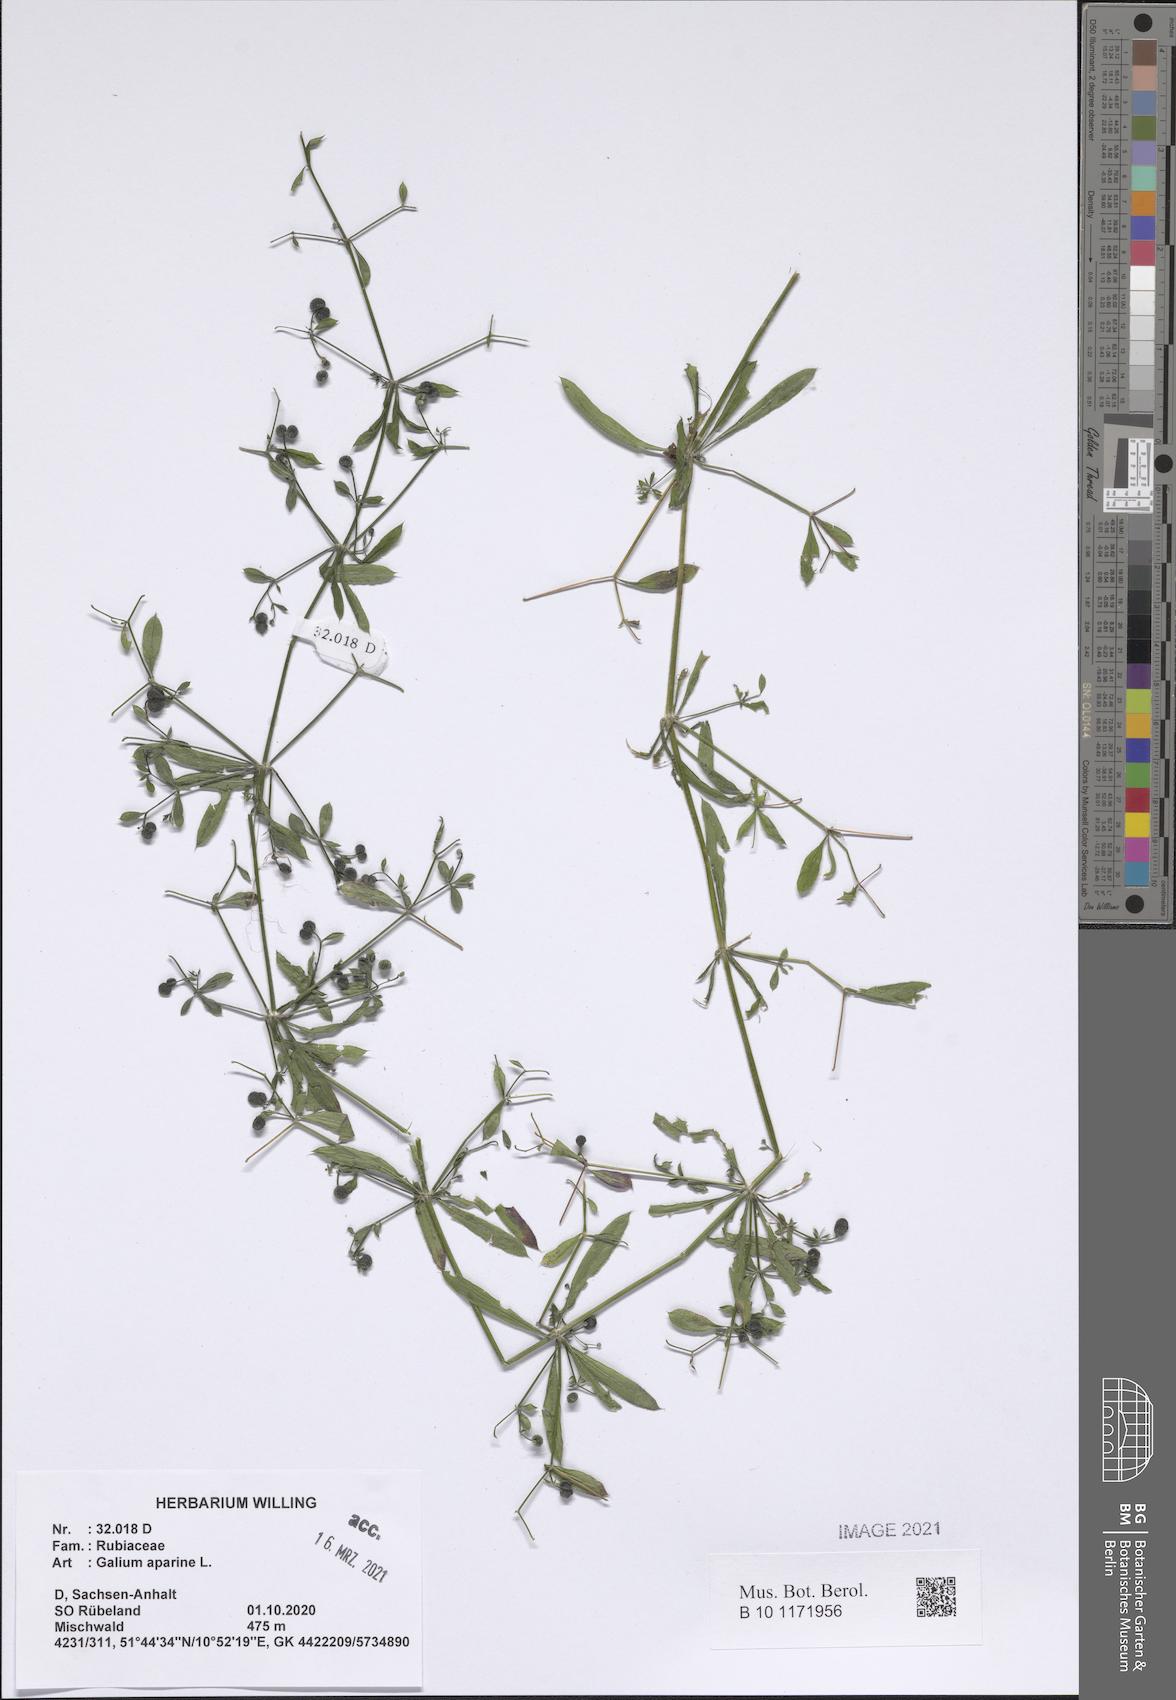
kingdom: Plantae
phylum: Tracheophyta
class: Magnoliopsida
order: Gentianales
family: Rubiaceae
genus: Galium
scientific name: Galium aparine
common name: Cleavers
